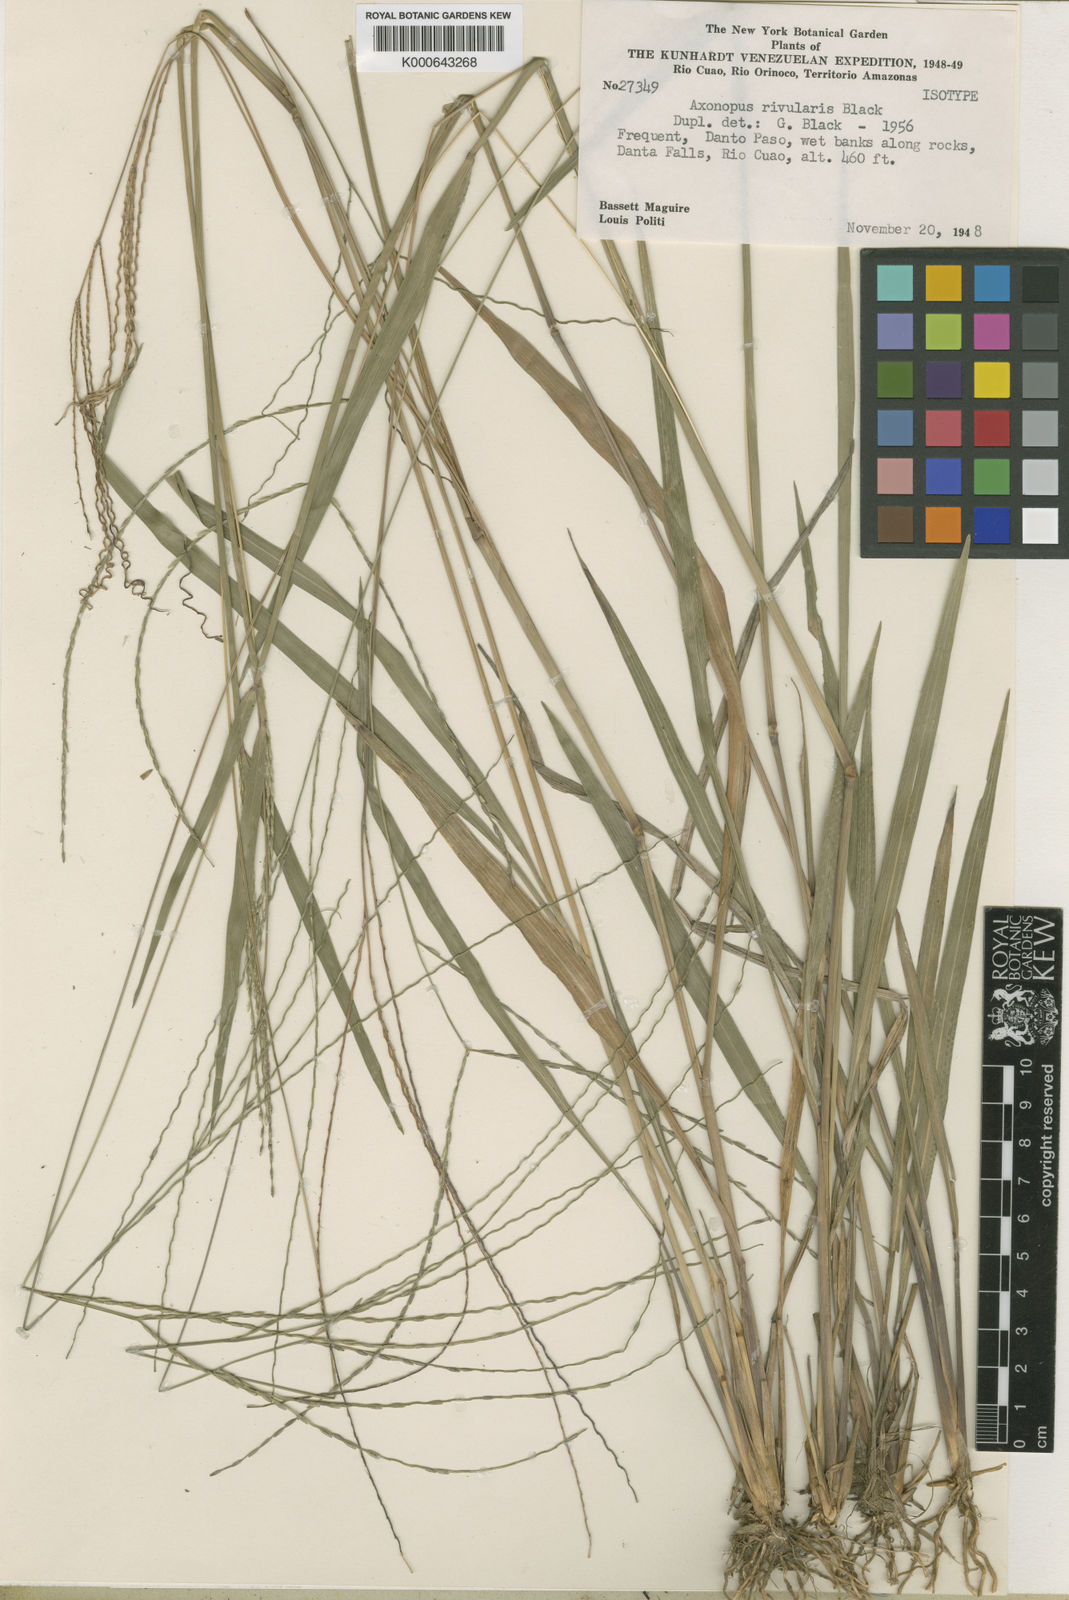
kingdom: Plantae
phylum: Tracheophyta
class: Liliopsida
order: Poales
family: Poaceae
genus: Axonopus
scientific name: Axonopus centralis
